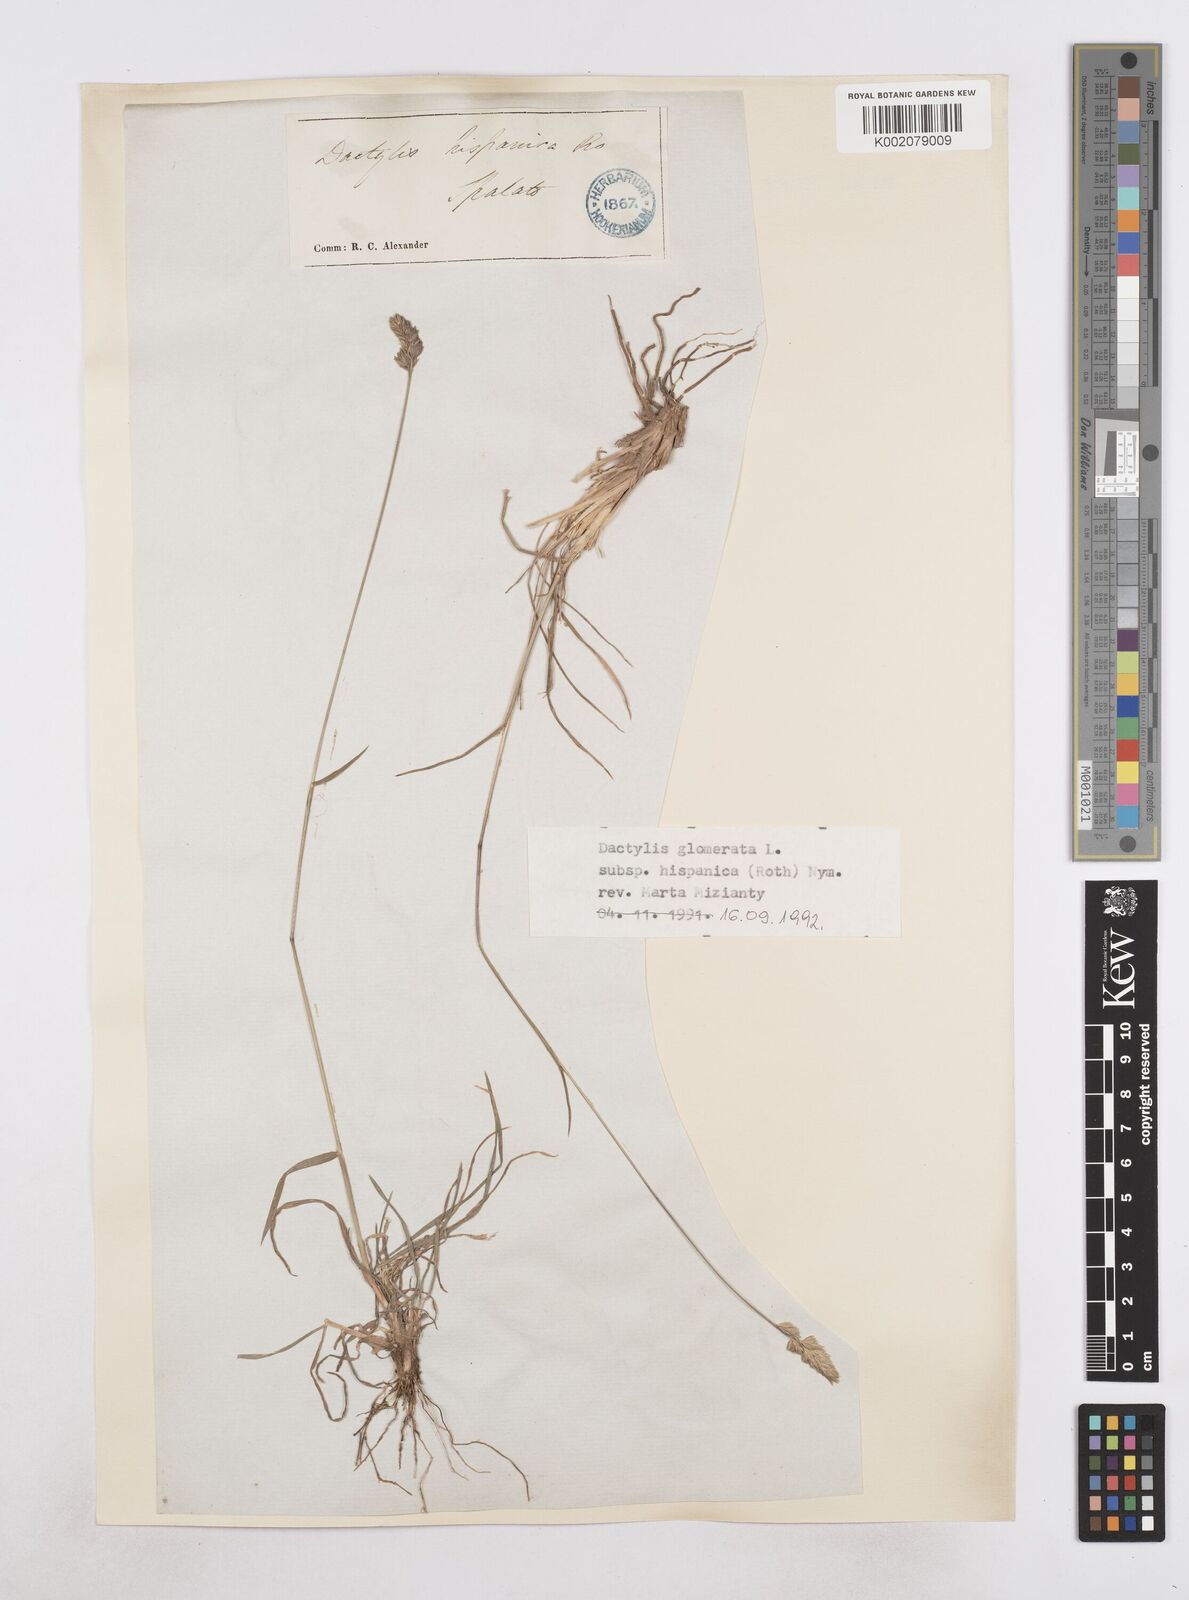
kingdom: Plantae
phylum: Tracheophyta
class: Liliopsida
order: Poales
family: Poaceae
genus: Dactylis
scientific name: Dactylis glomerata
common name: Orchardgrass
